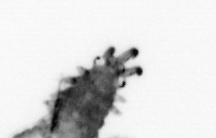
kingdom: Animalia
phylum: Annelida
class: Polychaeta
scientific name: Polychaeta
